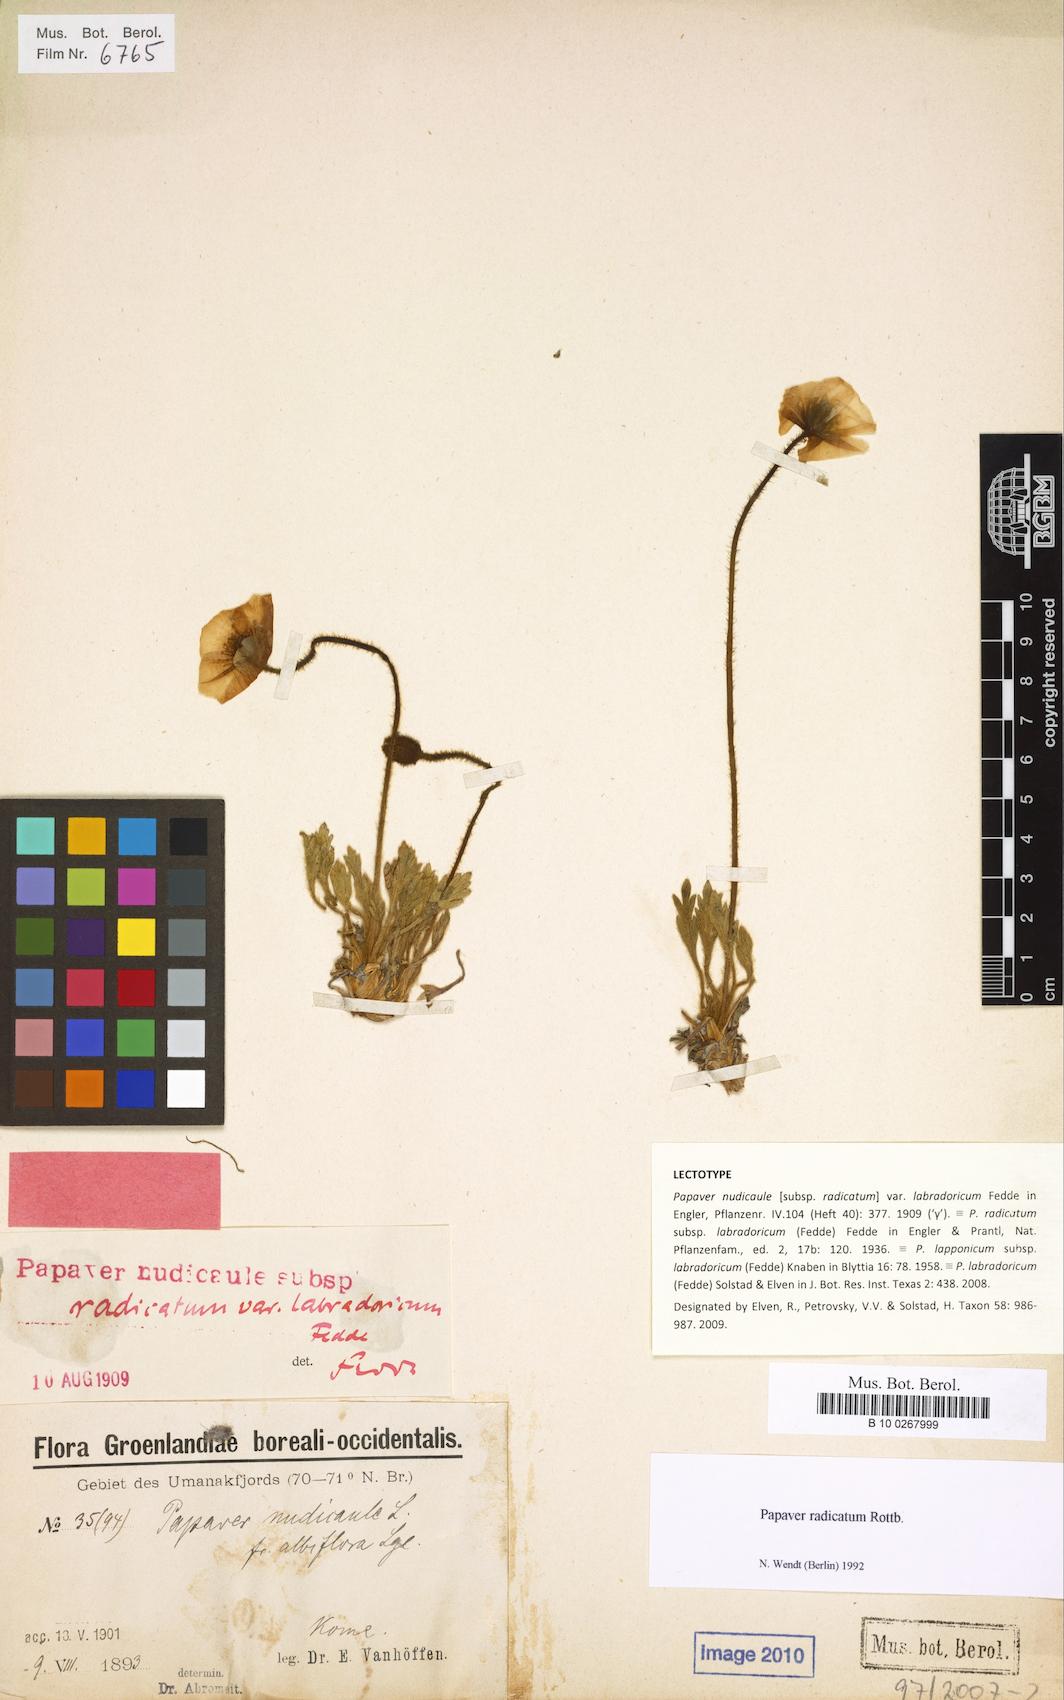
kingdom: Plantae
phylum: Tracheophyta
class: Magnoliopsida
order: Ranunculales
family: Papaveraceae
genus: Papaver
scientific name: Papaver radicatum
